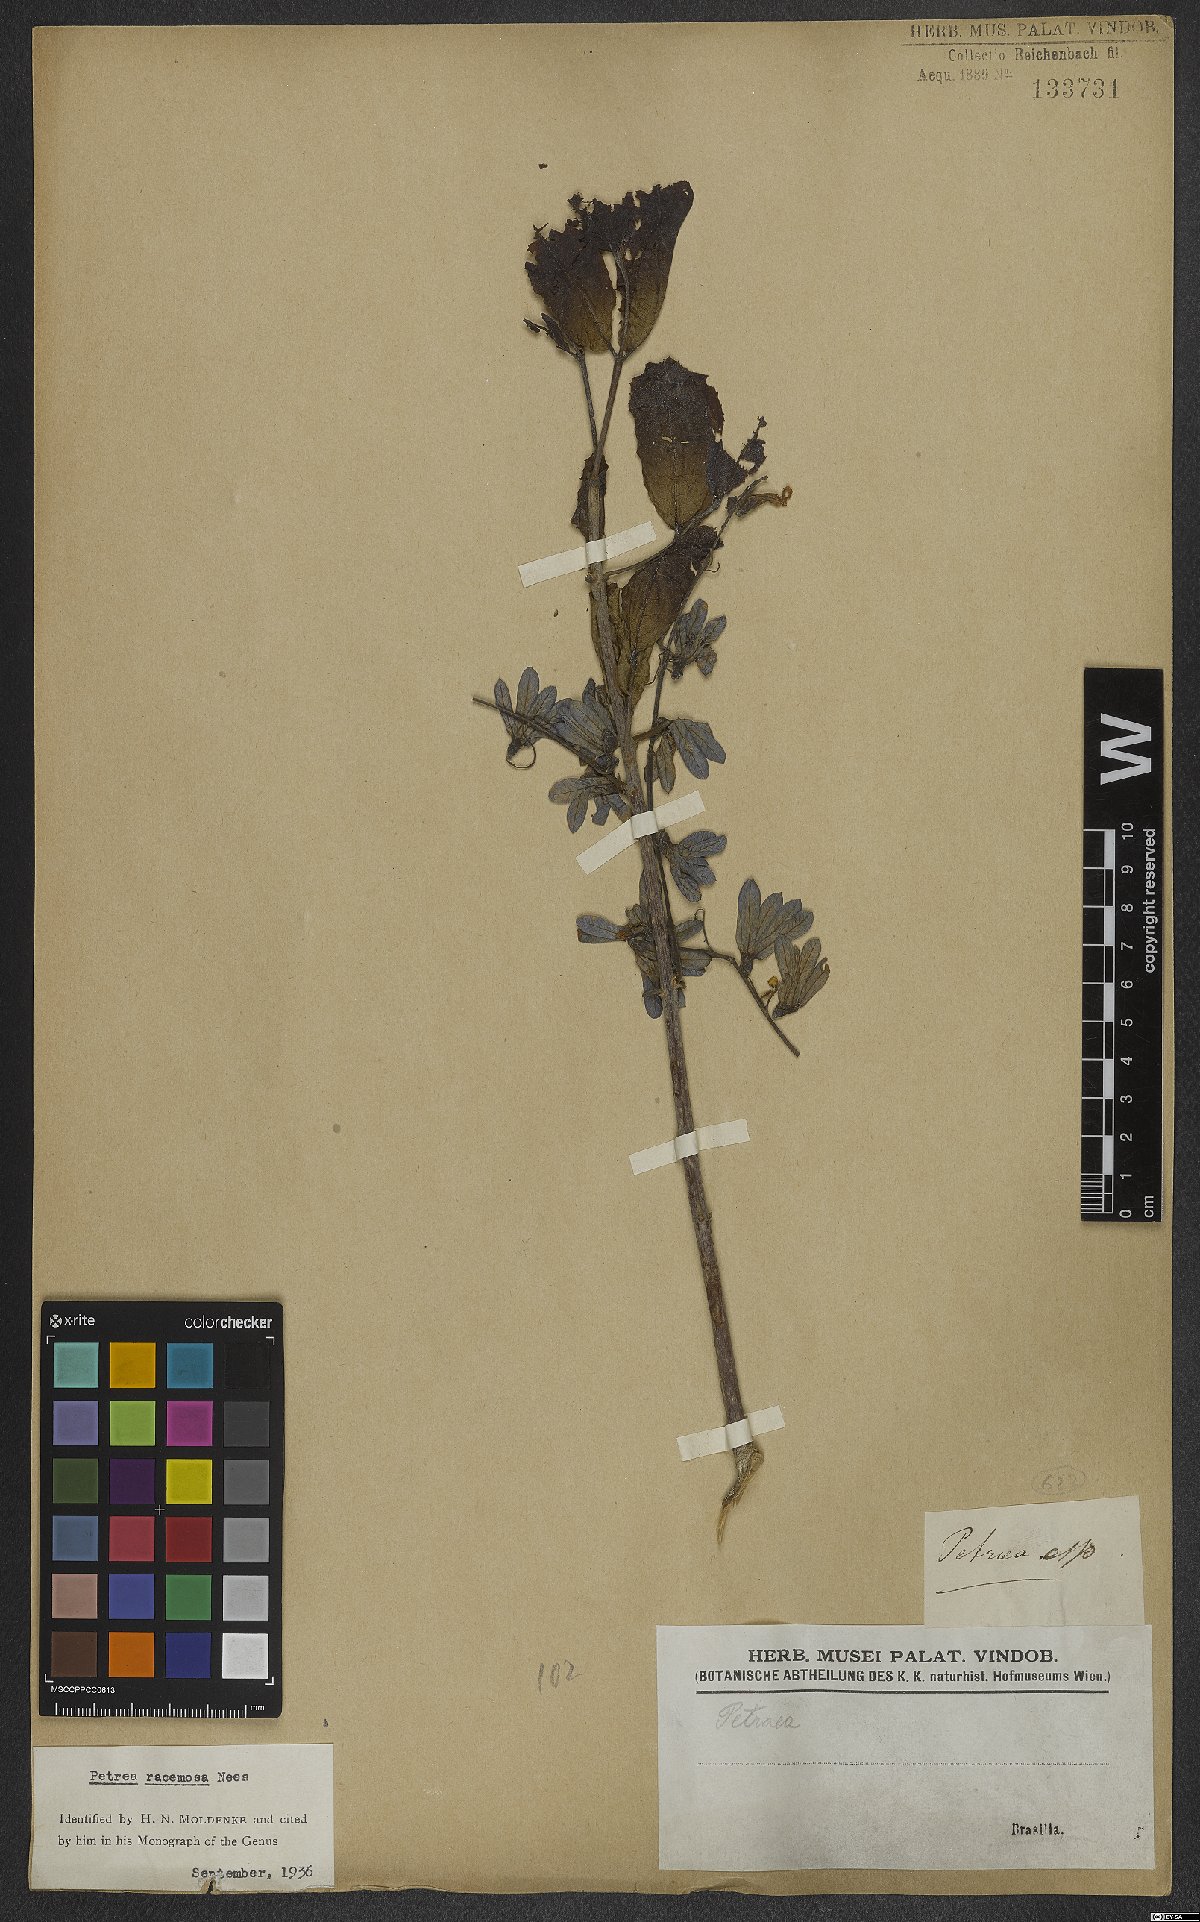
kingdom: Plantae
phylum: Tracheophyta
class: Magnoliopsida
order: Lamiales
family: Verbenaceae
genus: Petrea
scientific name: Petrea volubilis
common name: Queen's-wreath
